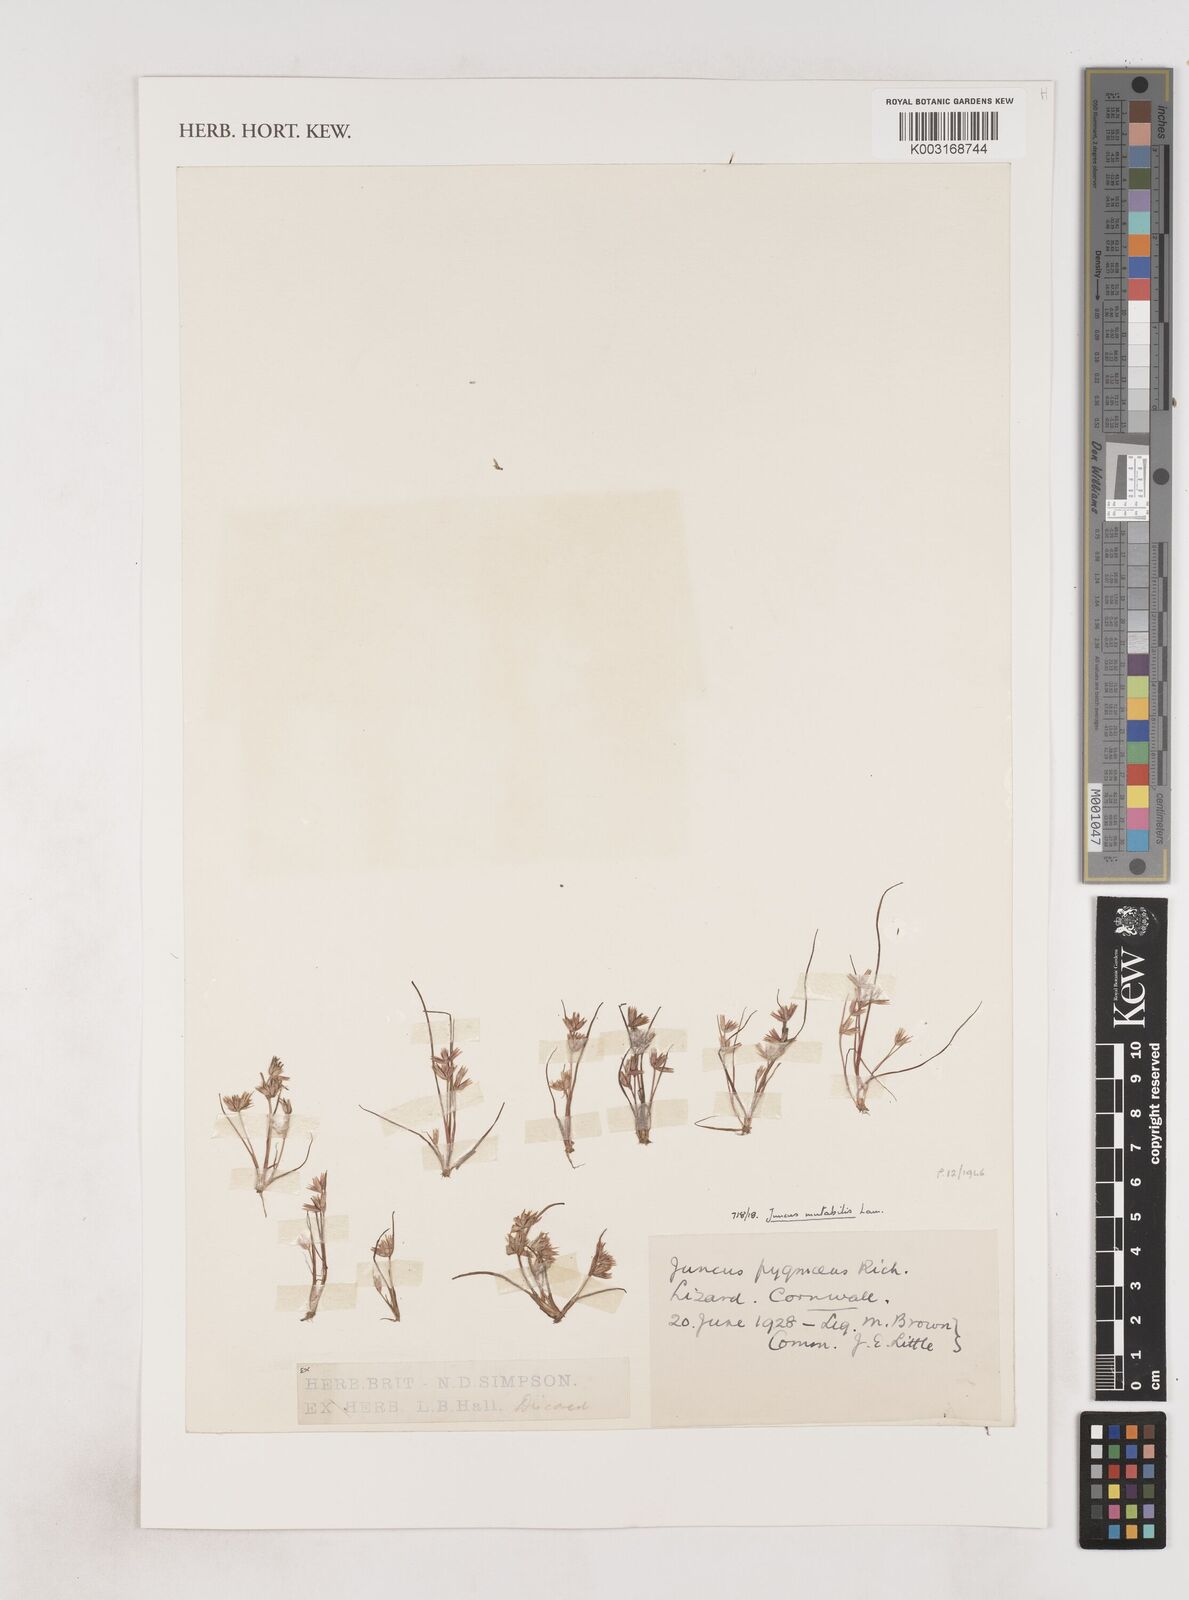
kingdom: Plantae
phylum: Tracheophyta
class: Liliopsida
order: Poales
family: Juncaceae
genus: Juncus
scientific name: Juncus pygmaeus
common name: Pigmy rush
